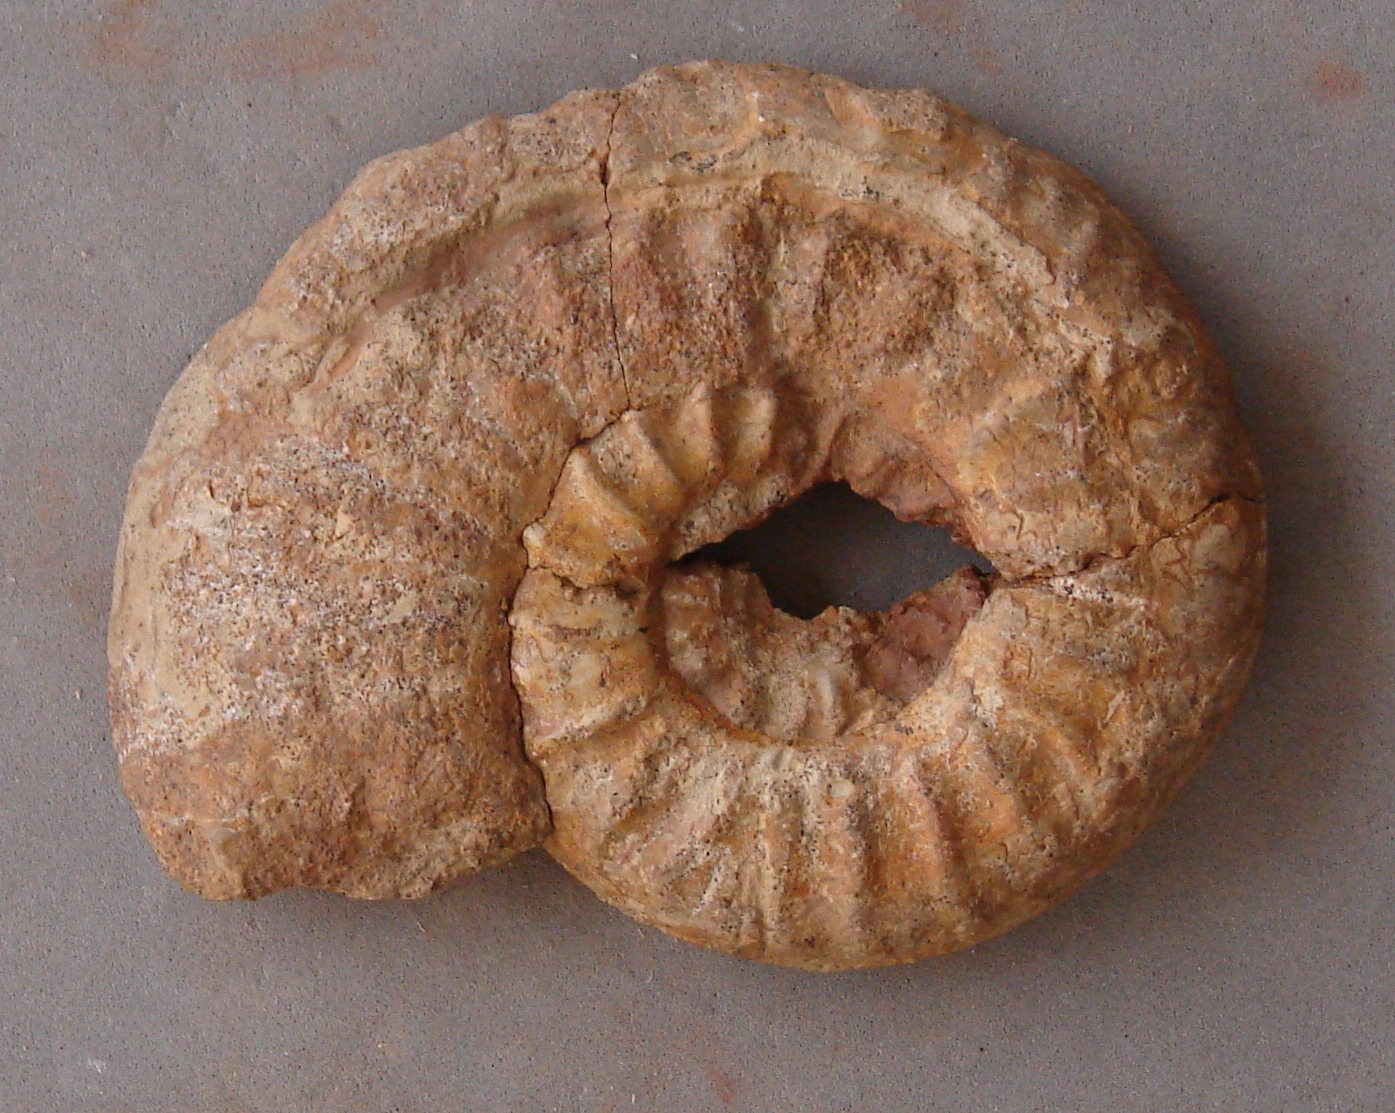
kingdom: Animalia
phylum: Mollusca
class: Cephalopoda
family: Hildoceratidae
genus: Dumortieria
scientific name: Dumortieria costula
